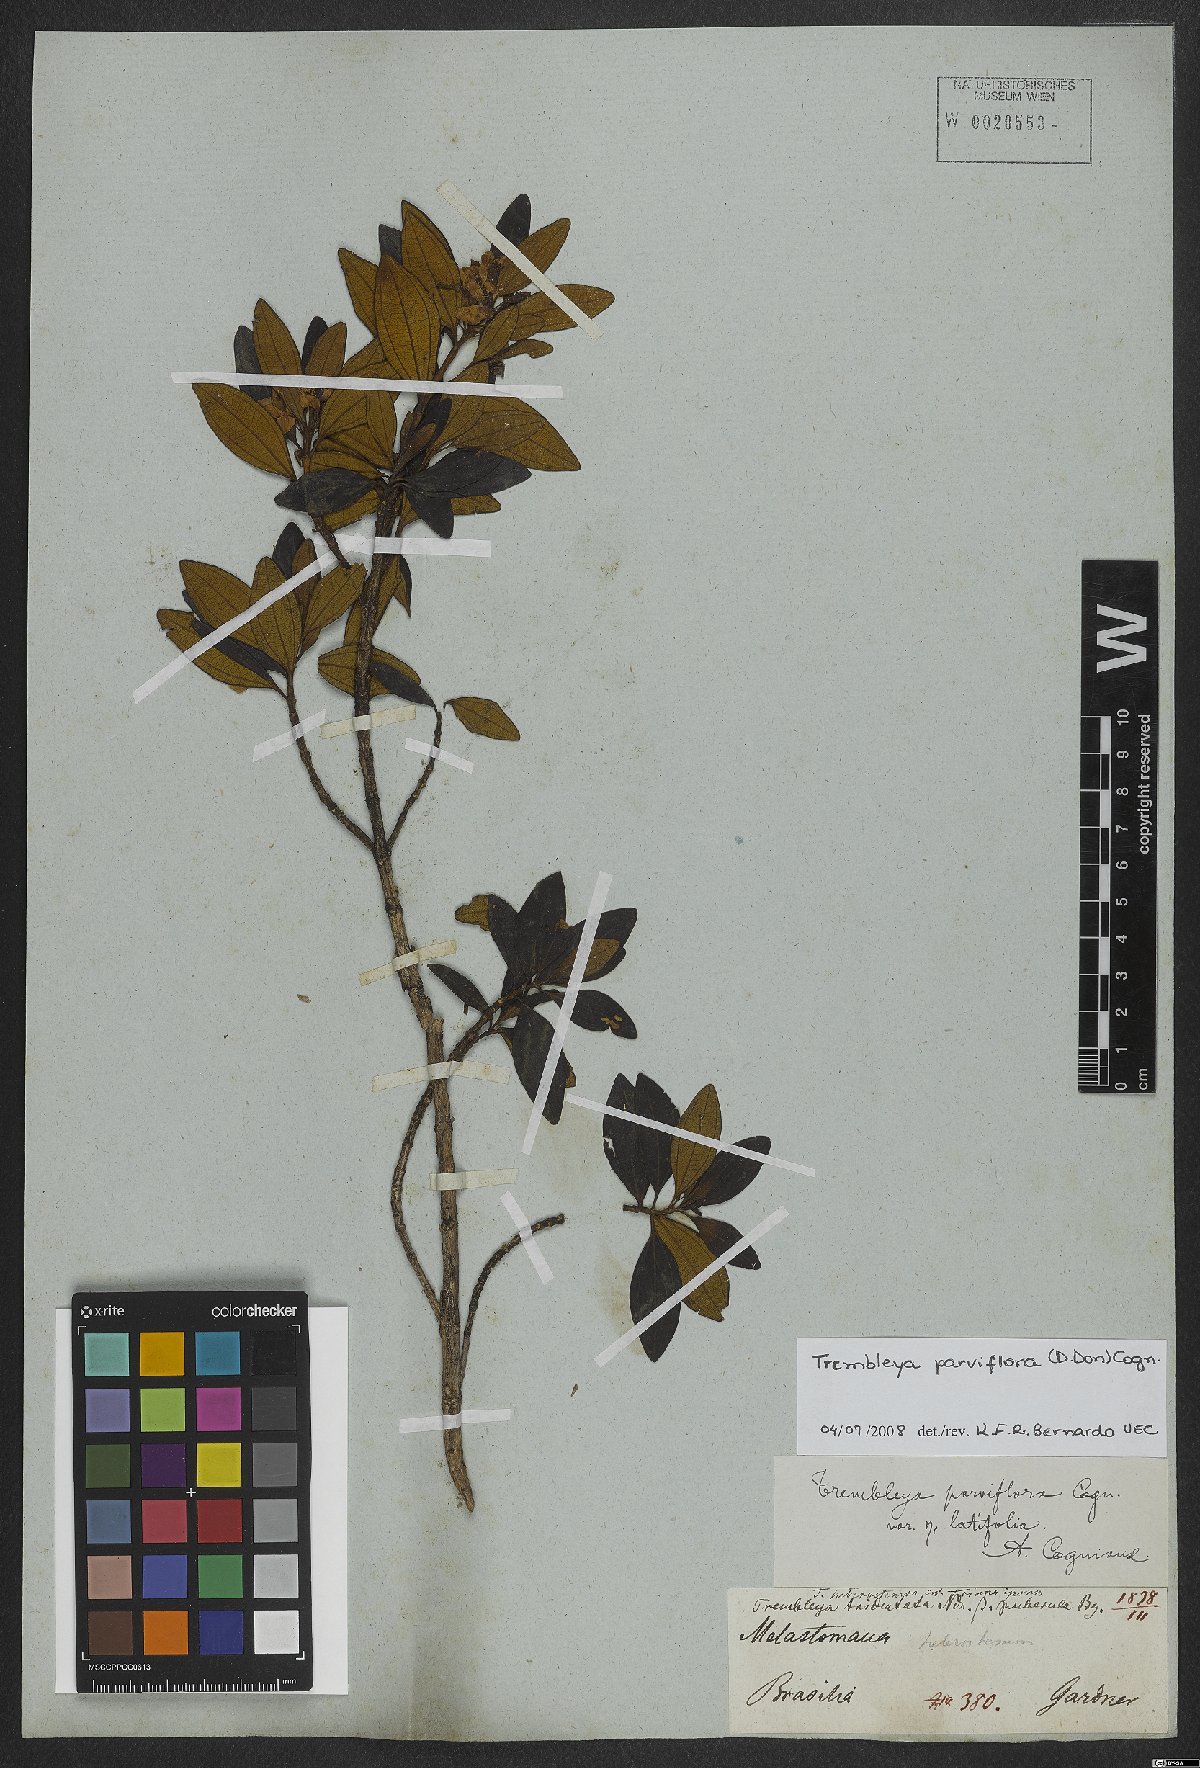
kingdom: Plantae
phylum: Tracheophyta
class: Magnoliopsida
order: Myrtales
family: Melastomataceae
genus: Microlicia
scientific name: Microlicia parviflora
